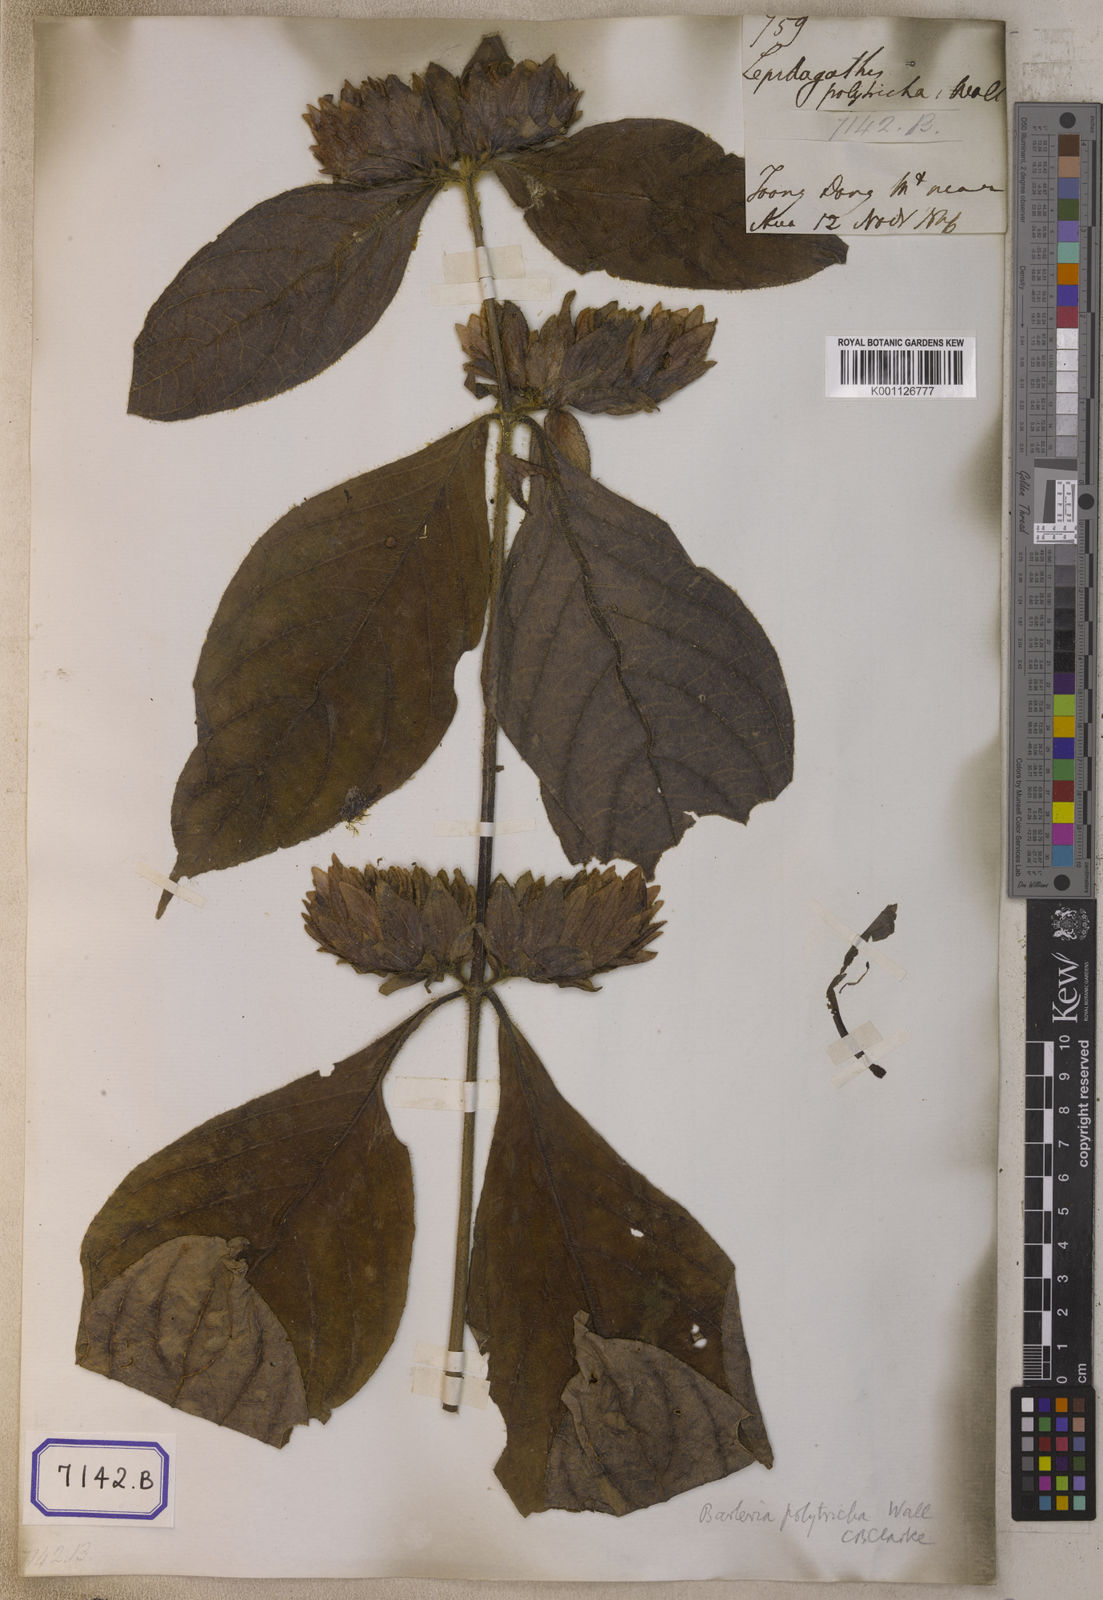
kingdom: Plantae
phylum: Tracheophyta
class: Magnoliopsida
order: Lamiales
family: Acanthaceae
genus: Barleria
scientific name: Barleria
